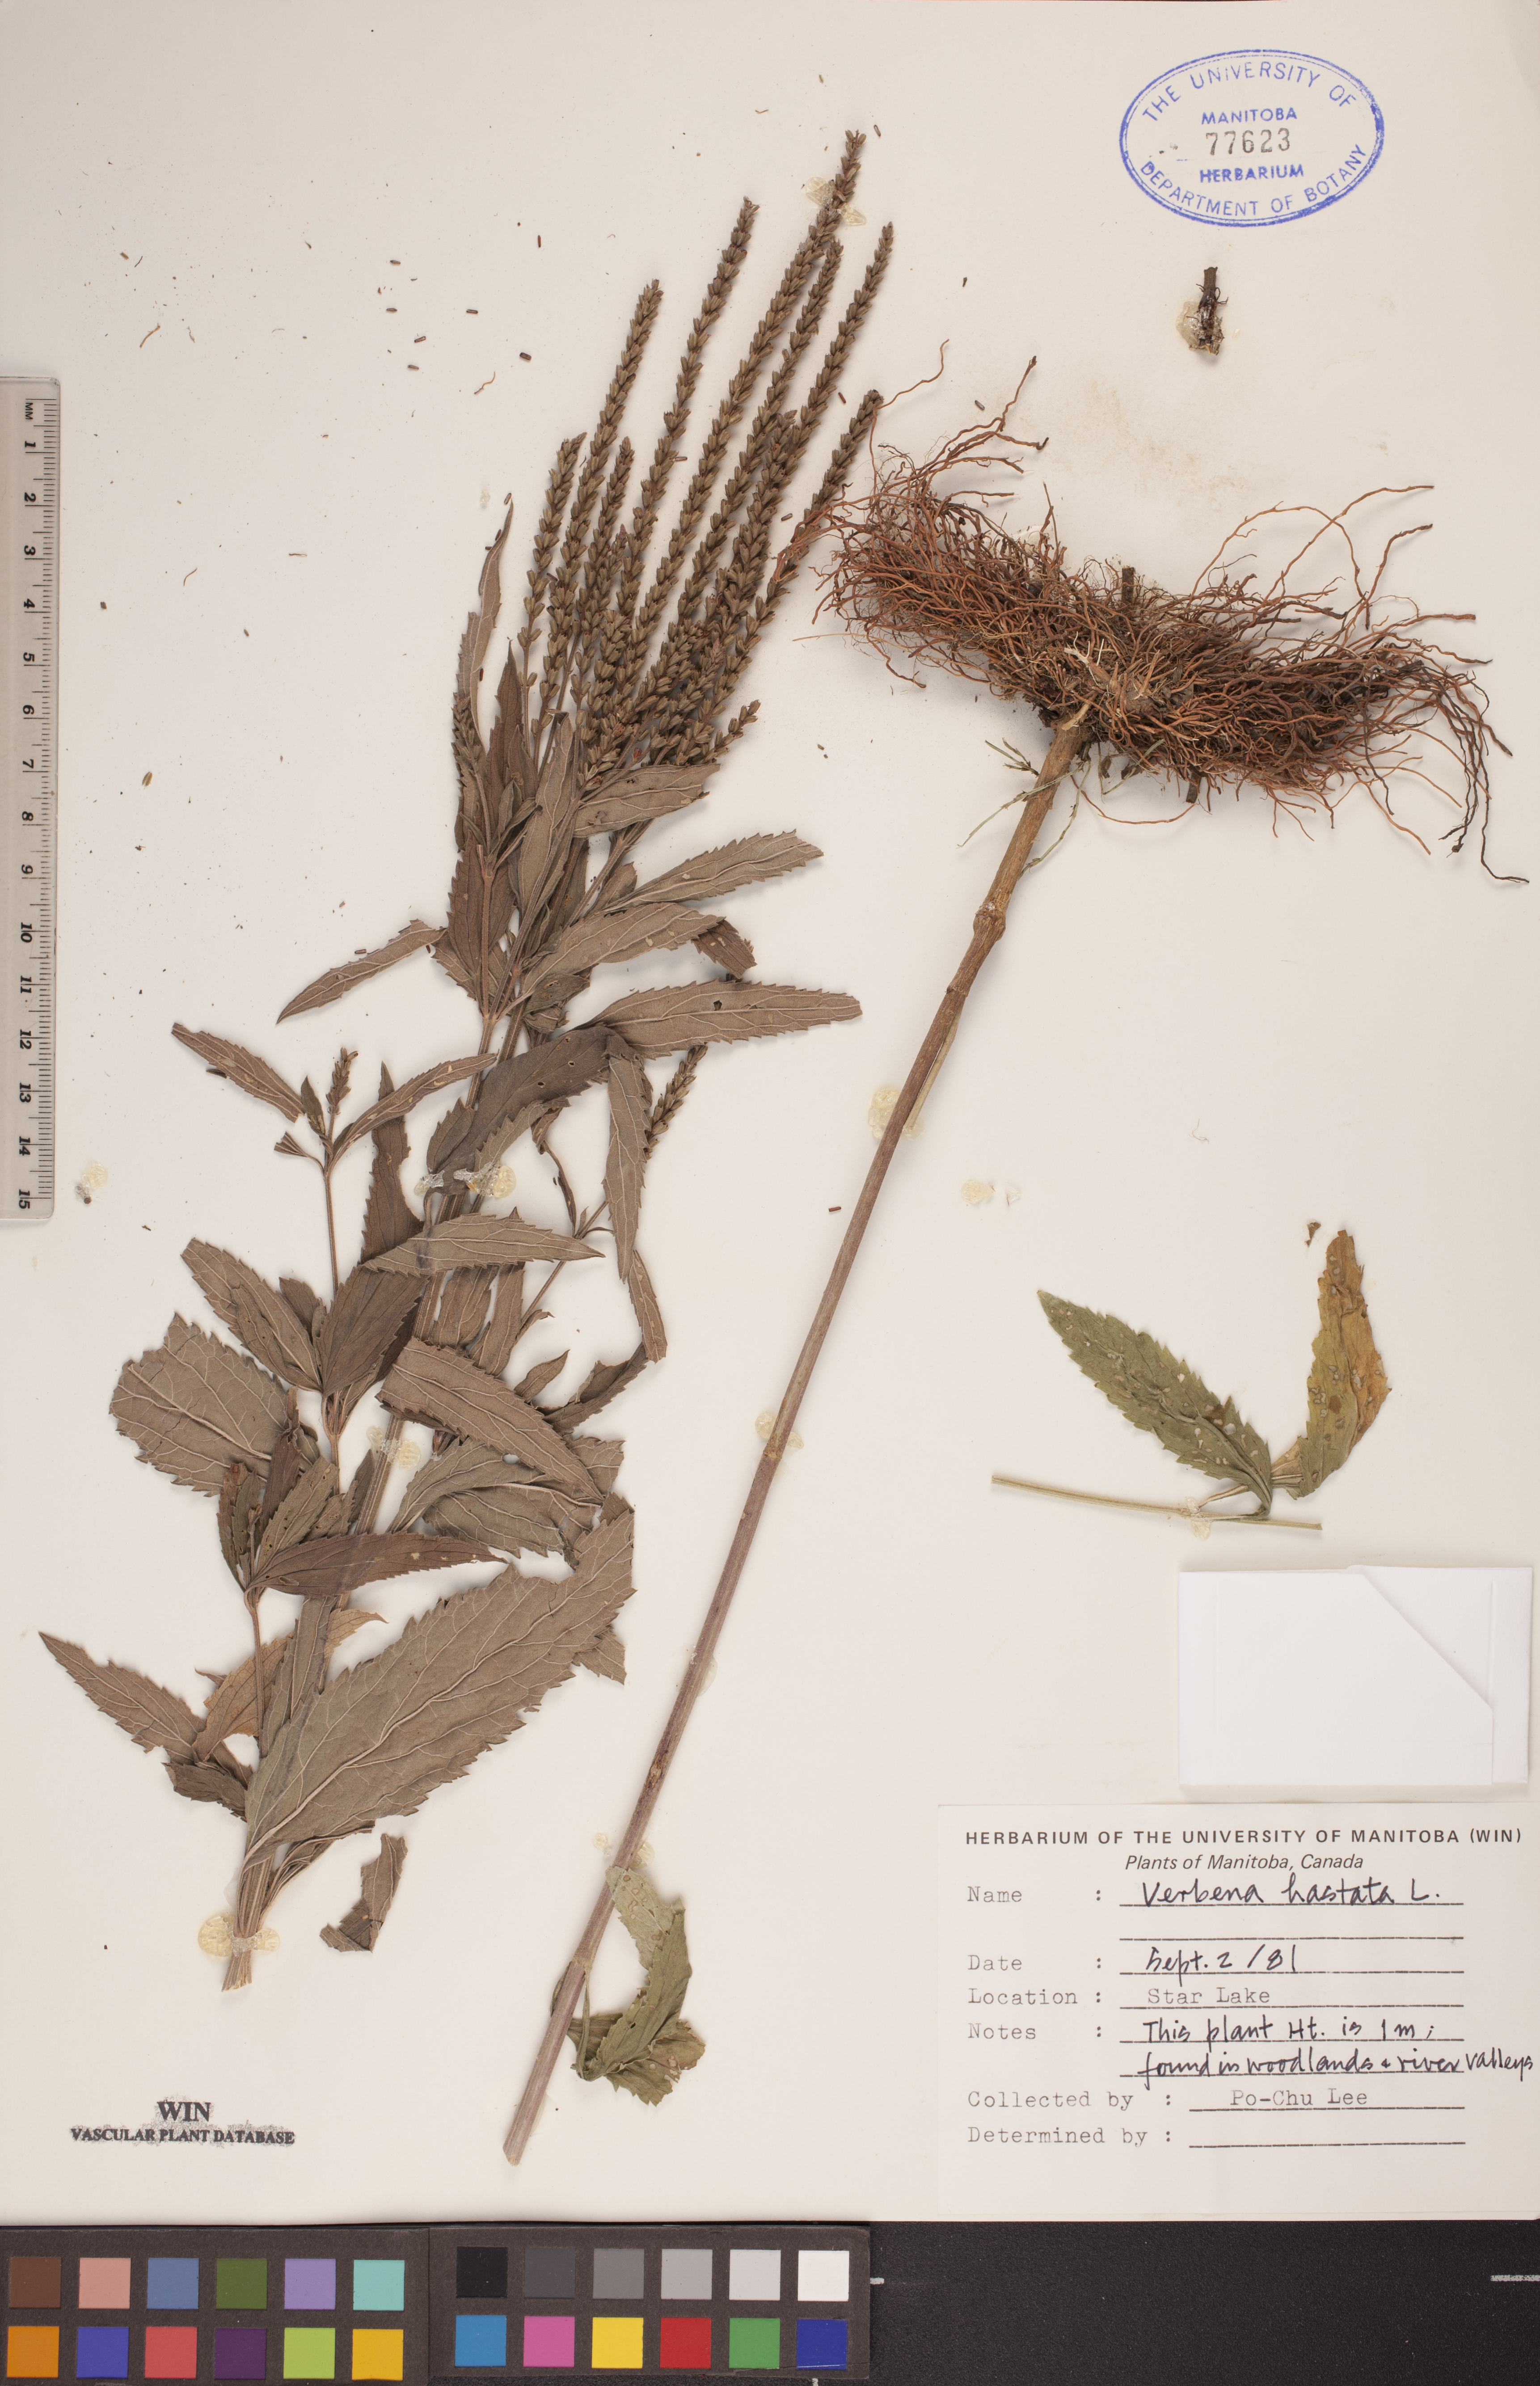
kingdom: Plantae
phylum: Tracheophyta
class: Magnoliopsida
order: Lamiales
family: Verbenaceae
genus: Verbena
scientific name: Verbena hastata
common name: American blue vervain
